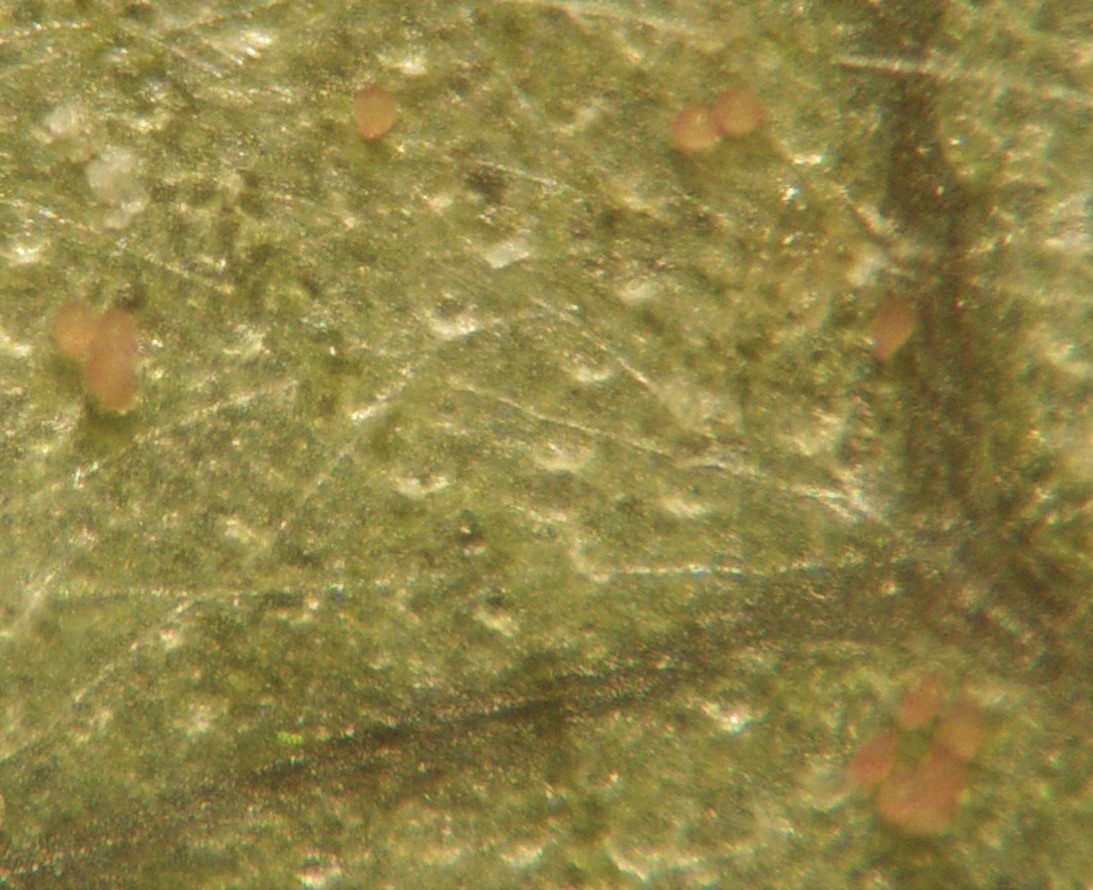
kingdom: Fungi
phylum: Ascomycota
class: Leotiomycetes
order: Helotiales
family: Erysiphaceae
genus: Erysiphe
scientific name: Erysiphe berberidis
